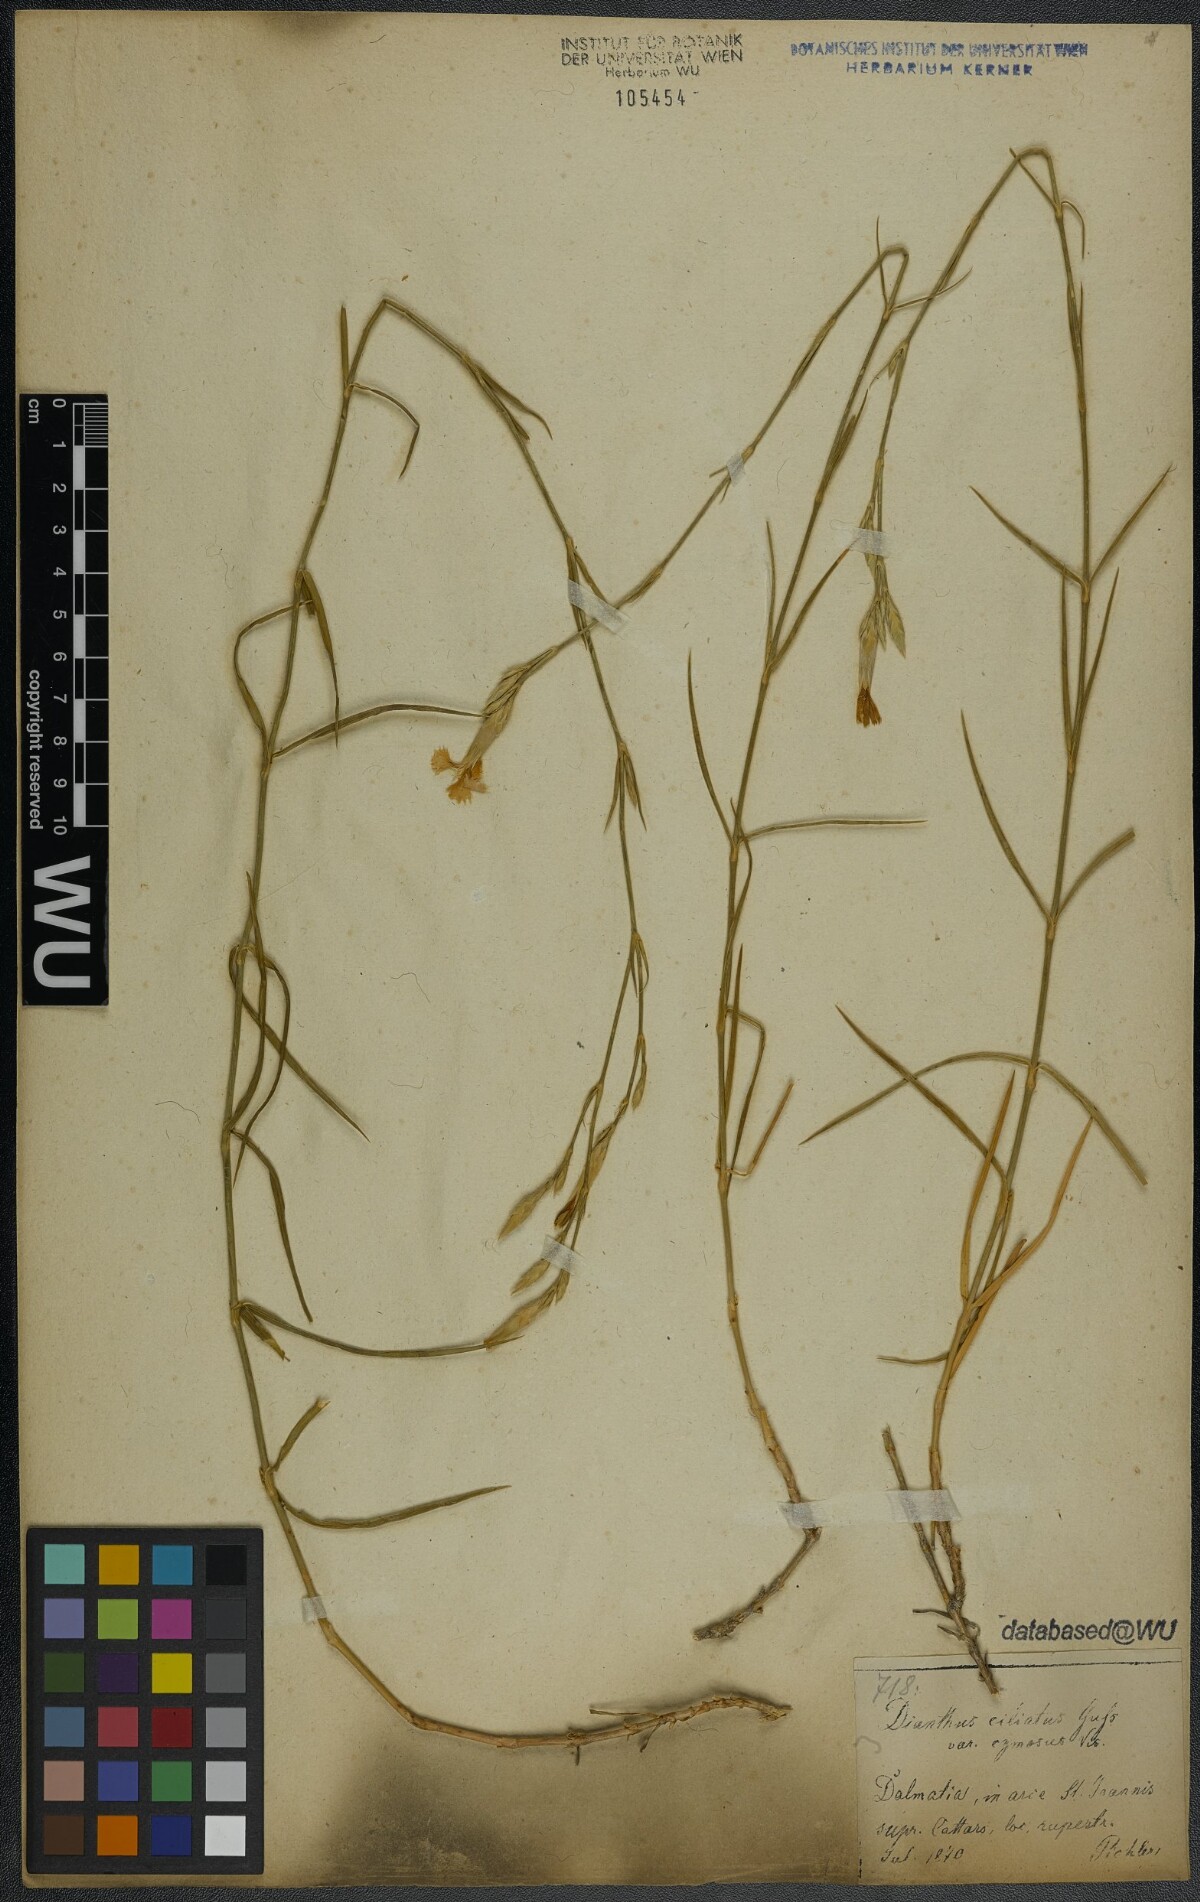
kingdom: Plantae
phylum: Tracheophyta
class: Magnoliopsida
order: Caryophyllales
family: Caryophyllaceae
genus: Dianthus
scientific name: Dianthus ciliatus
